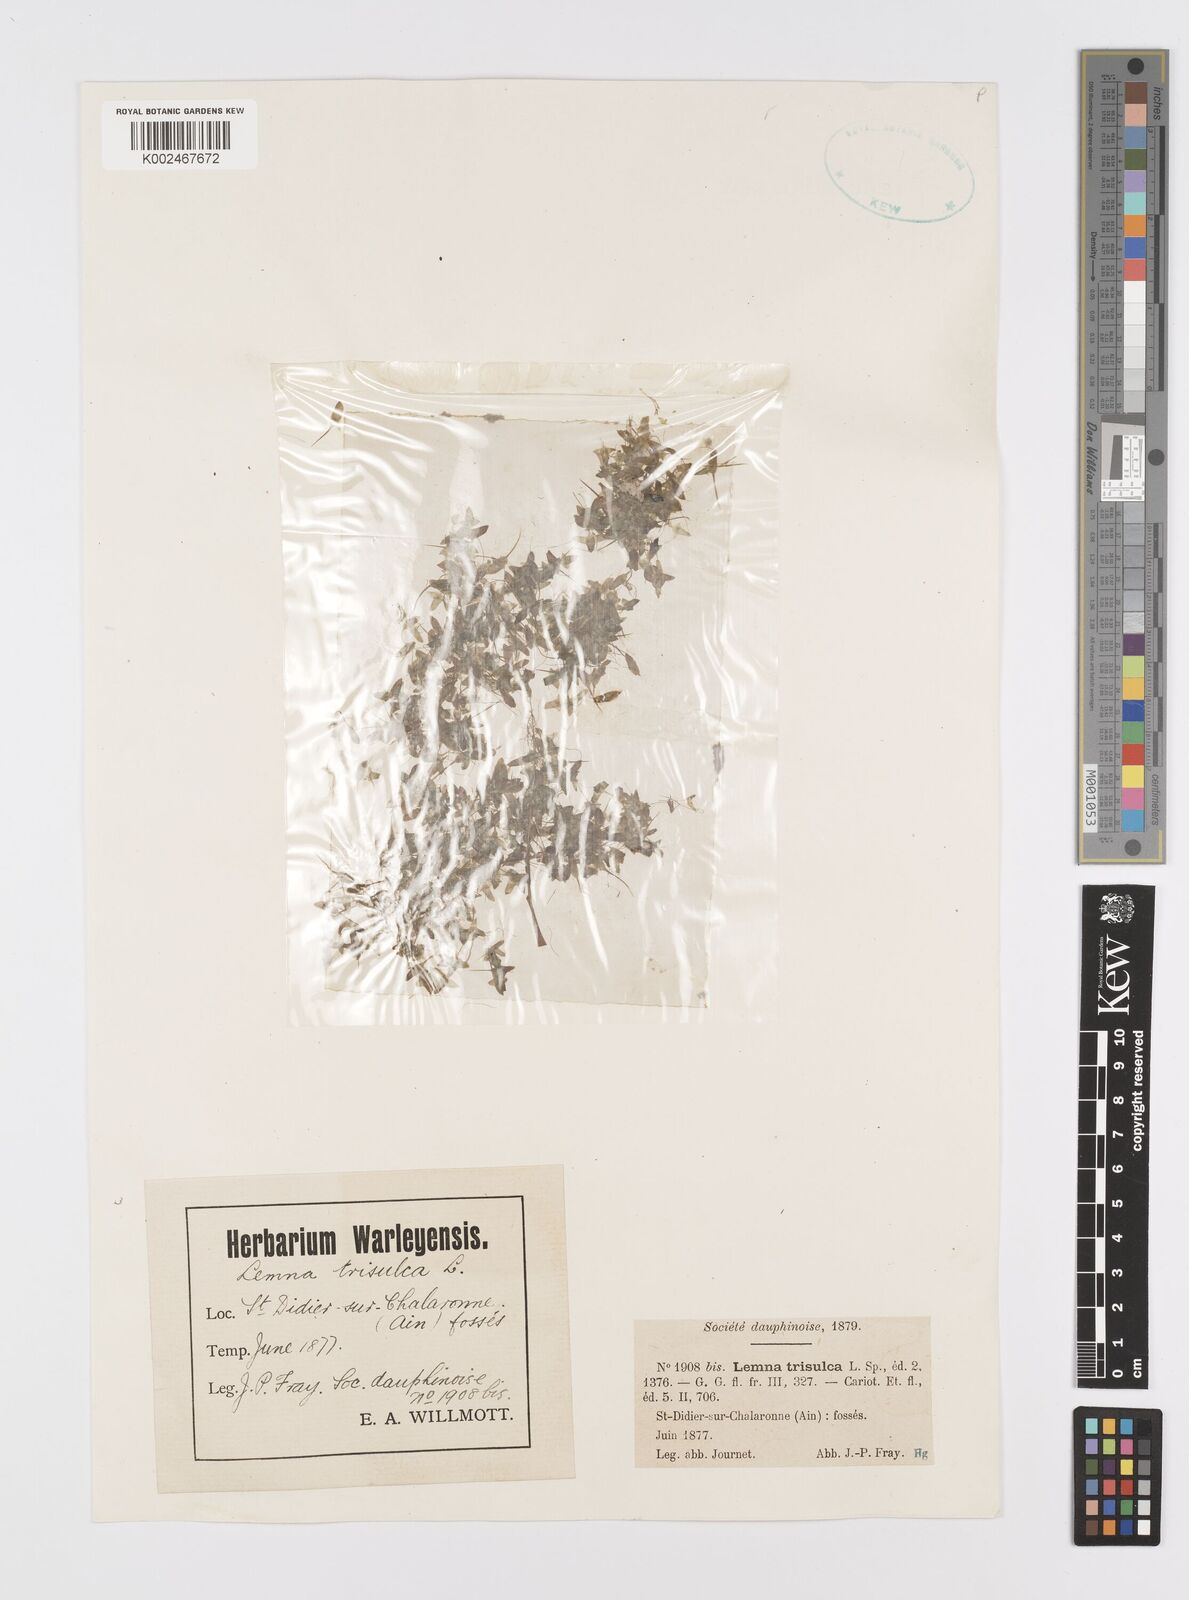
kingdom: Plantae
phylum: Tracheophyta
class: Liliopsida
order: Alismatales
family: Araceae
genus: Lemna
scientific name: Lemna trisulca
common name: Ivy-leaved duckweed
